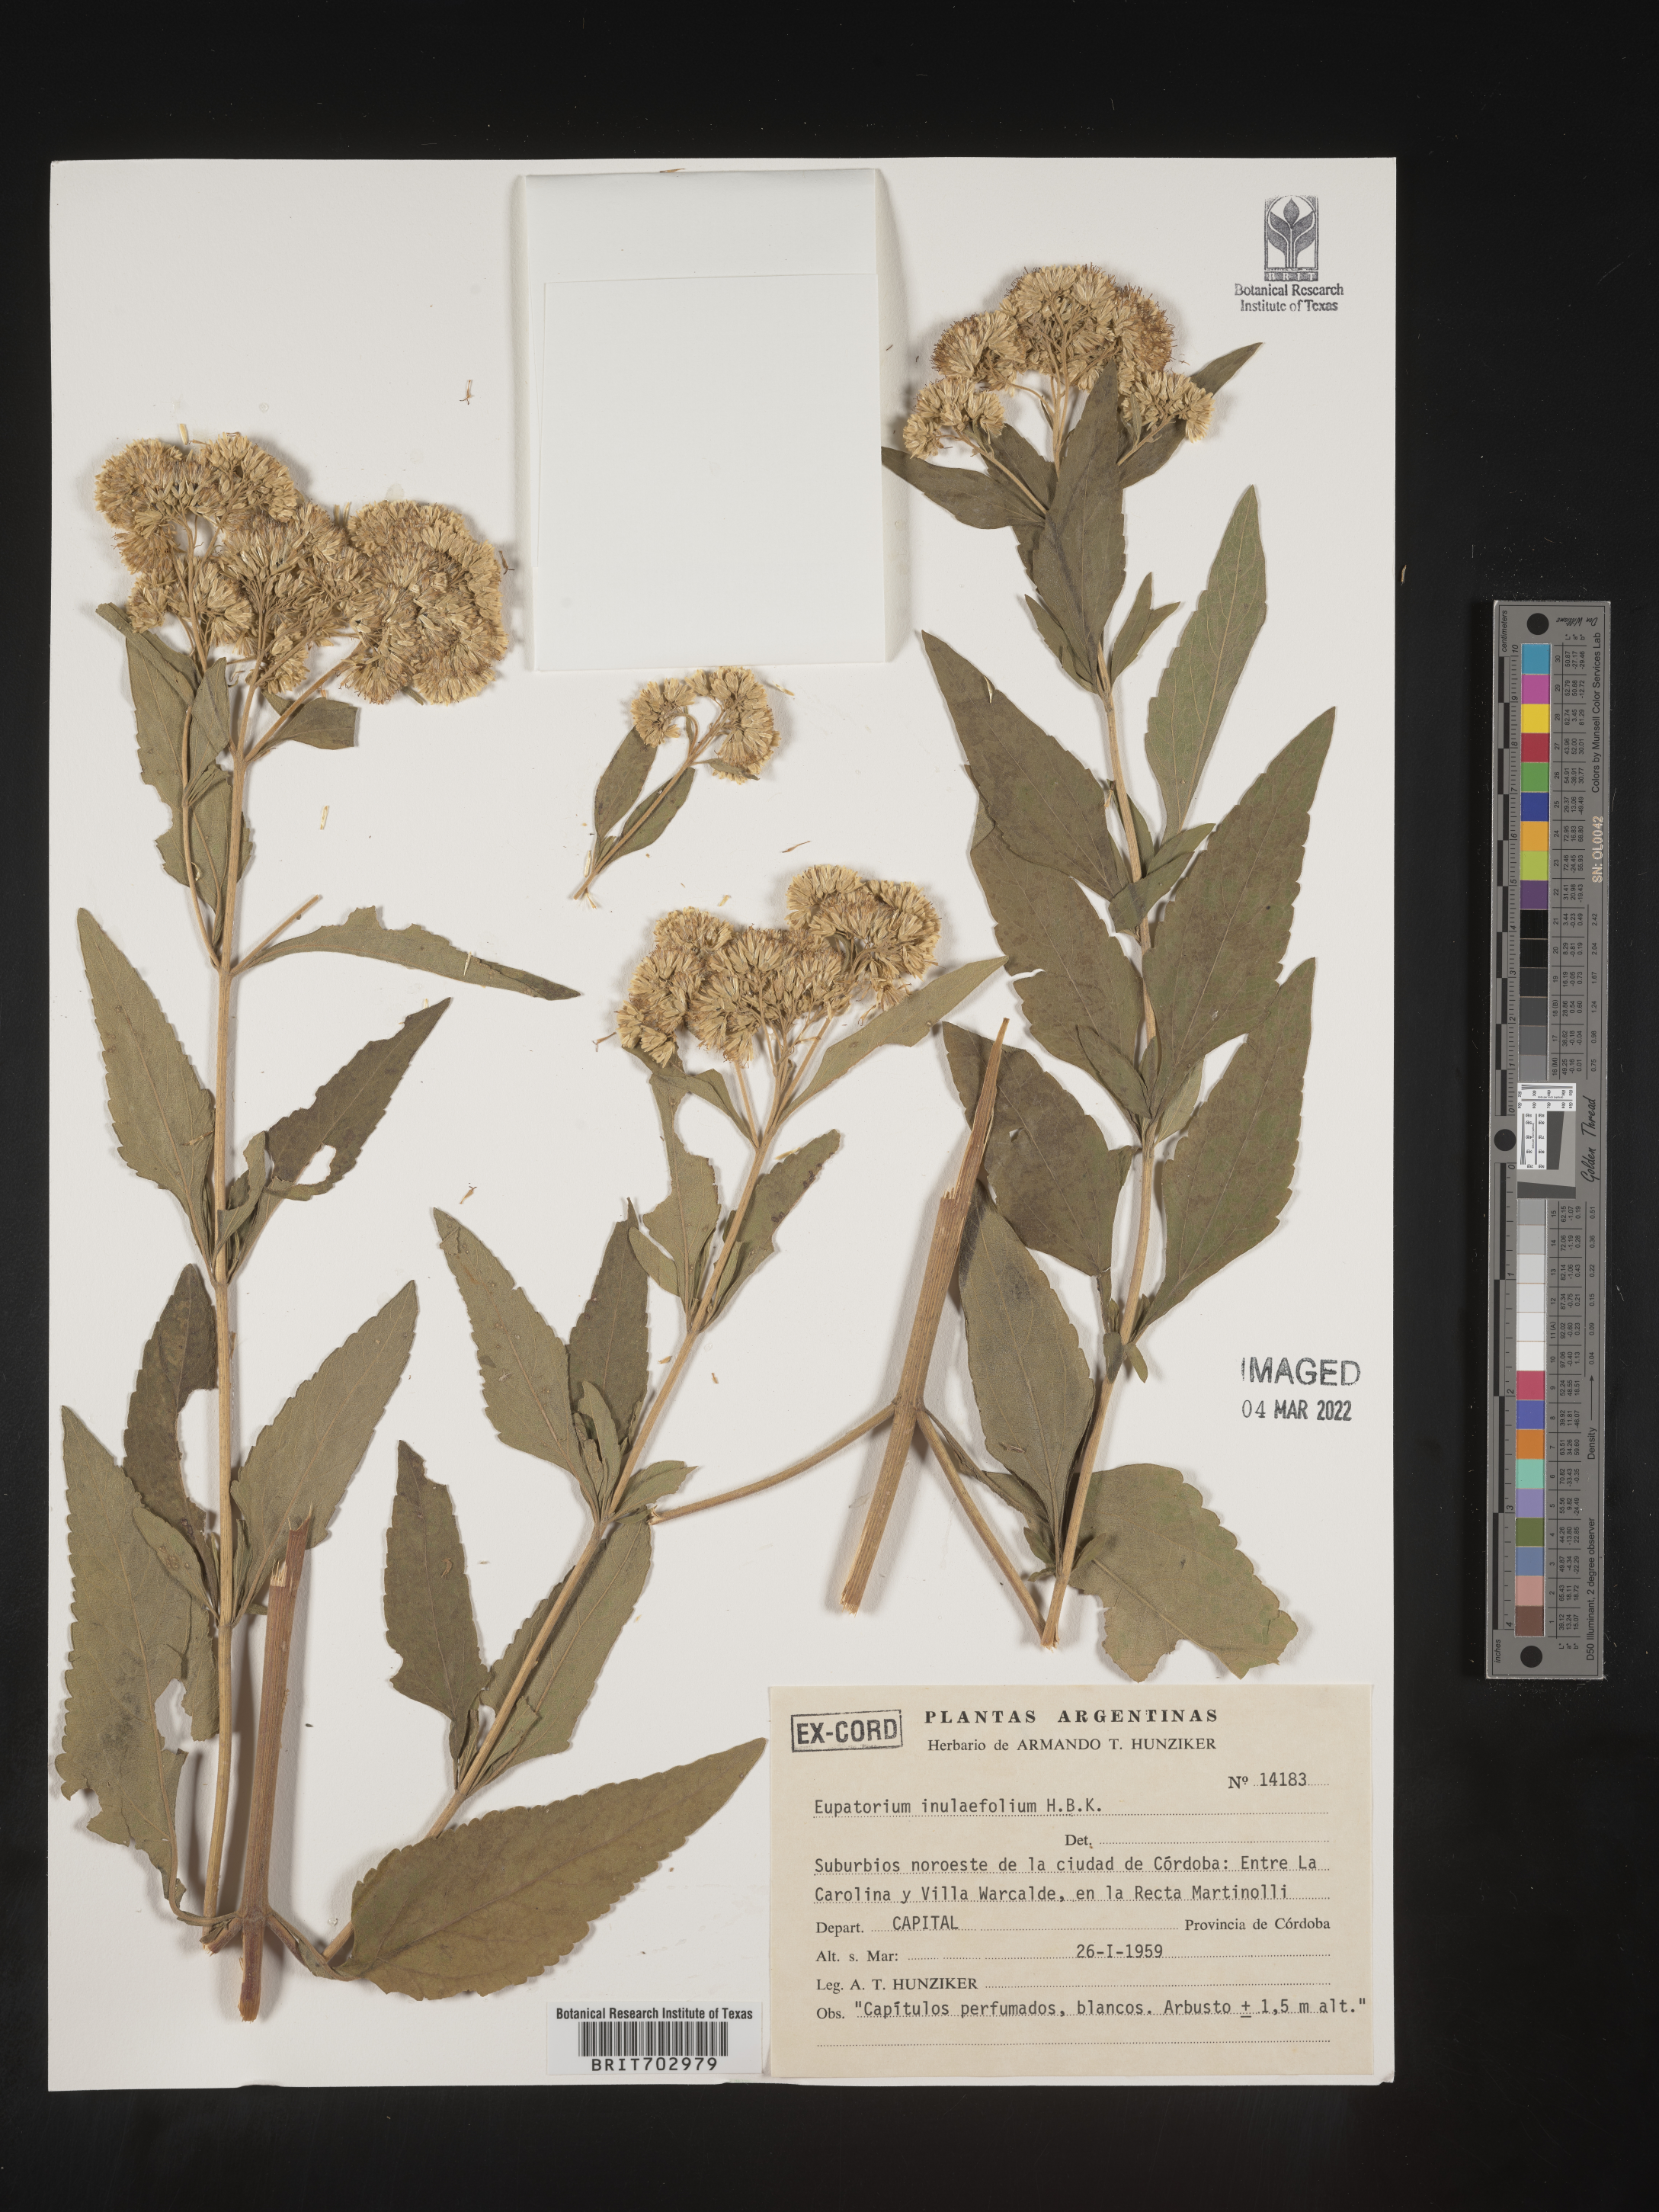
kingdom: Plantae
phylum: Tracheophyta
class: Magnoliopsida
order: Asterales
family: Asteraceae
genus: Eupatorium
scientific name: Eupatorium
